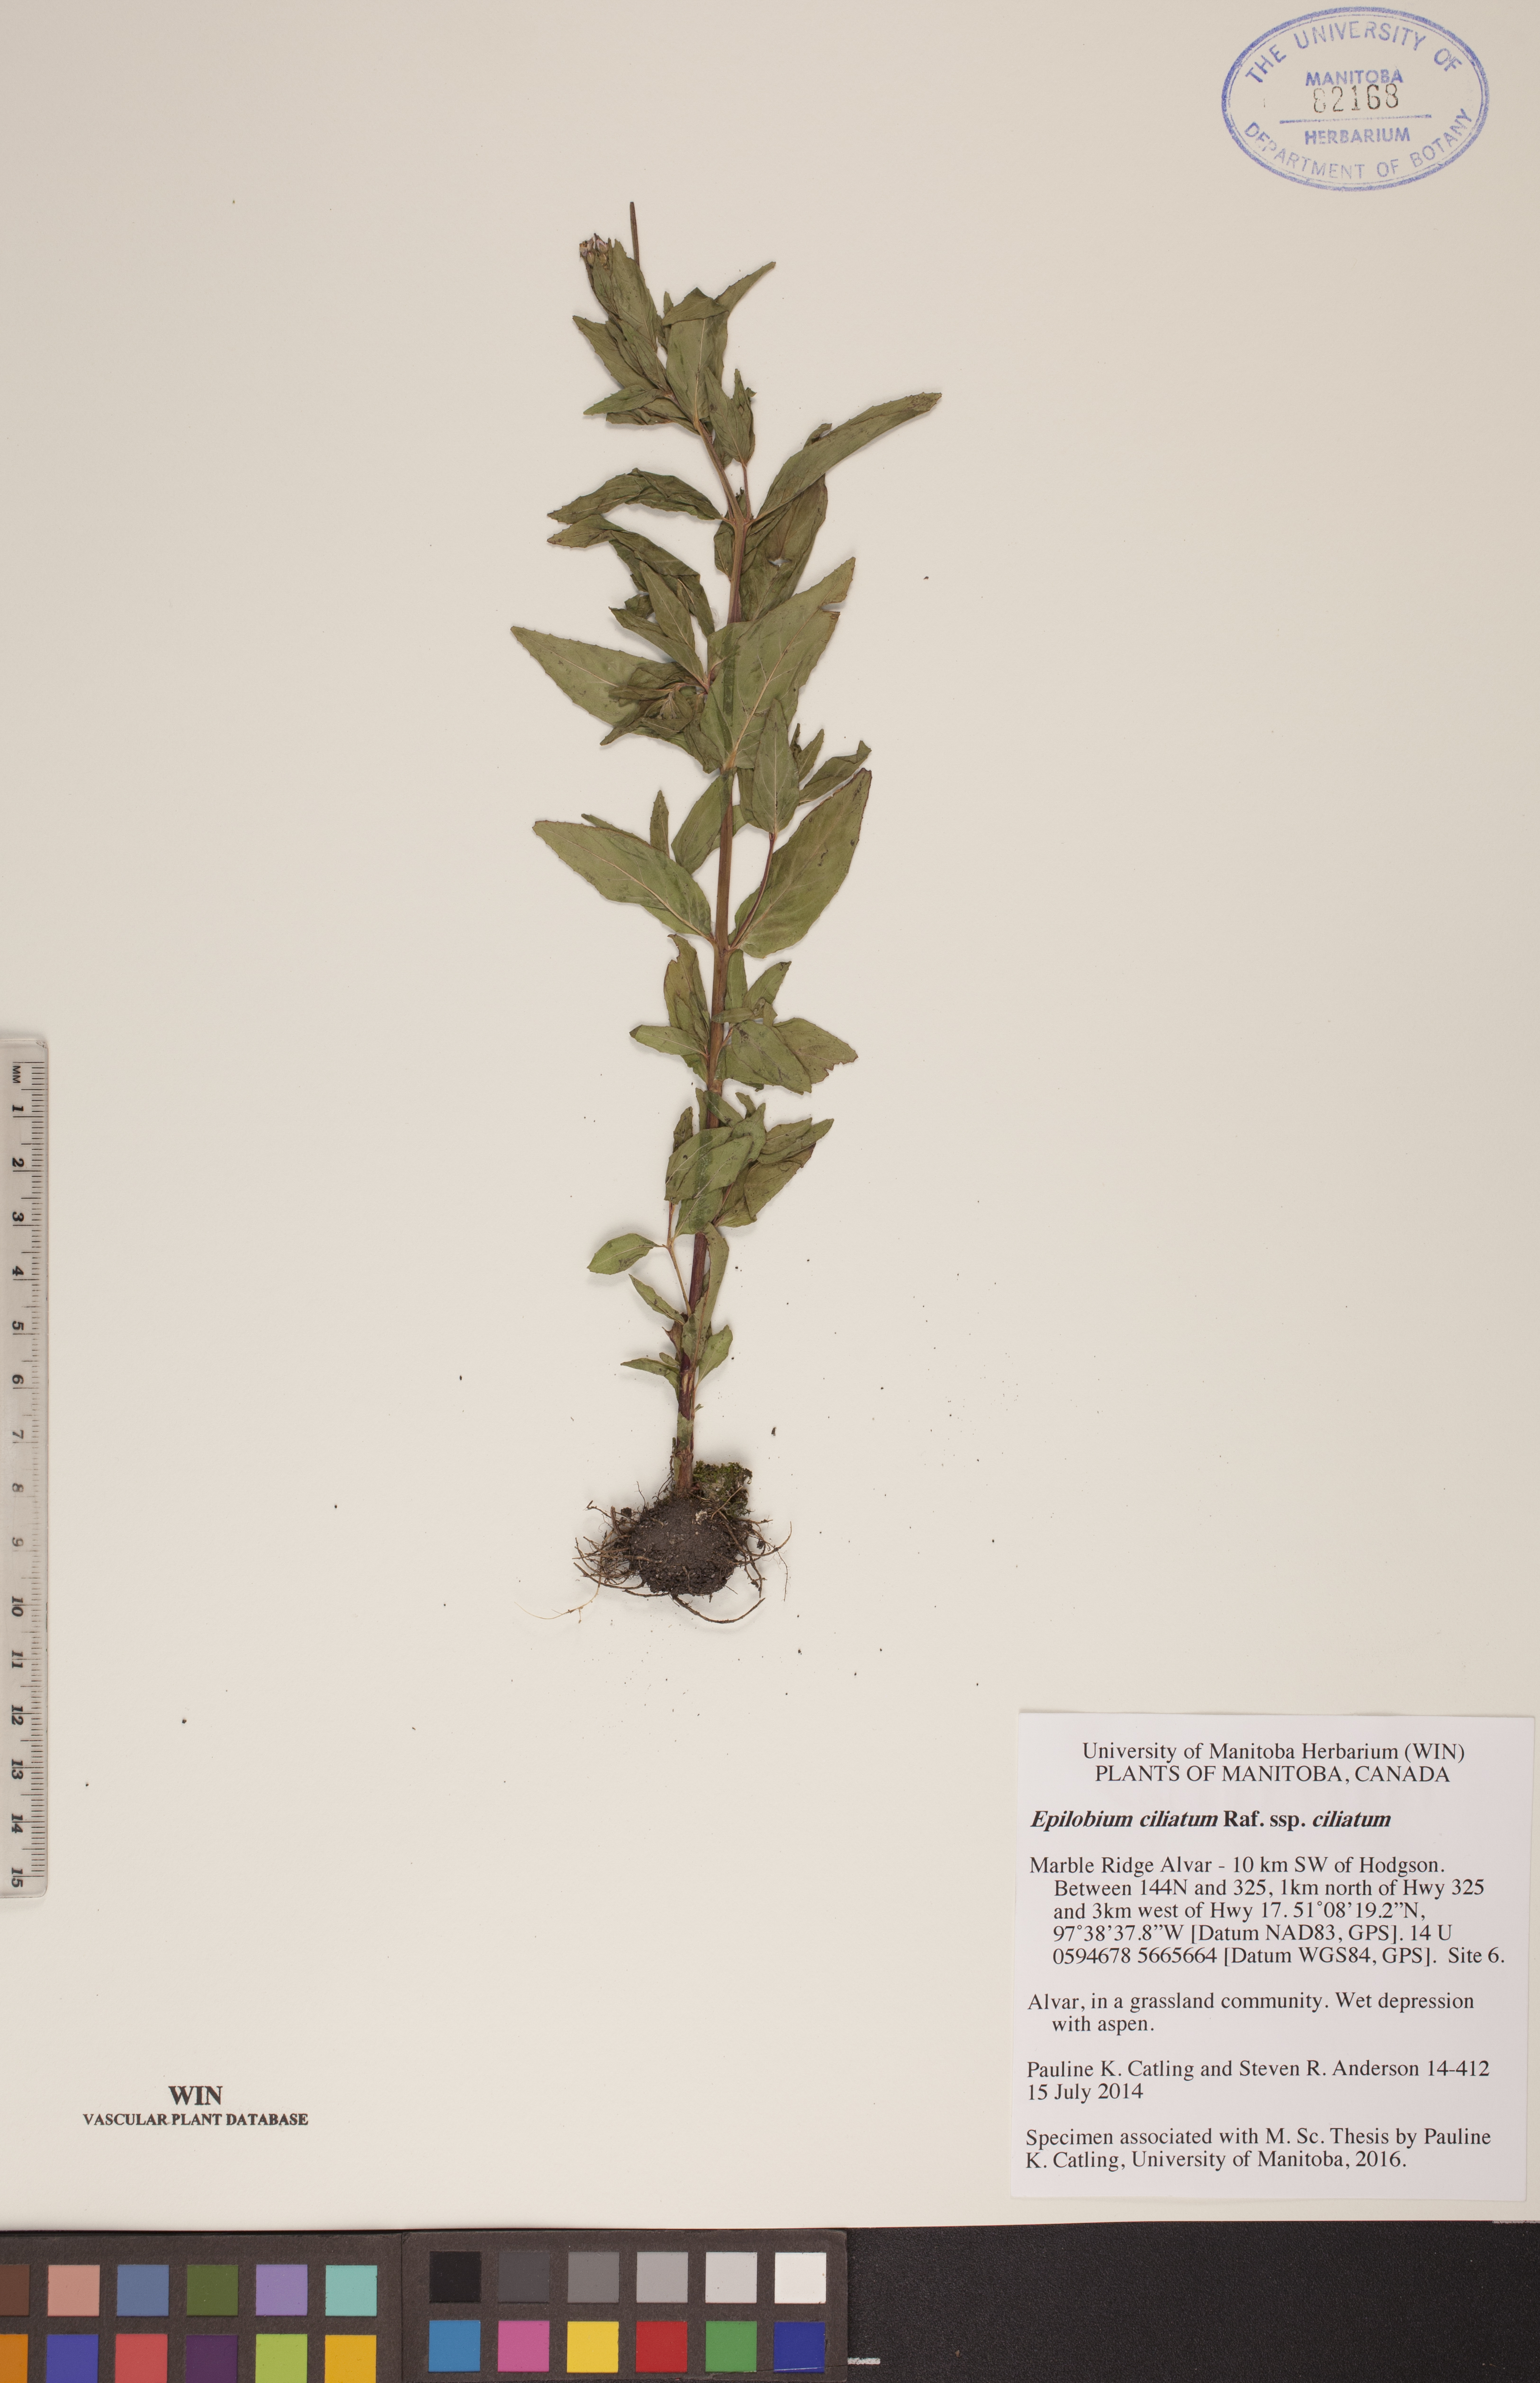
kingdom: Plantae
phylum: Tracheophyta
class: Magnoliopsida
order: Myrtales
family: Onagraceae
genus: Epilobium
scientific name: Epilobium ciliatum
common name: American willowherb
